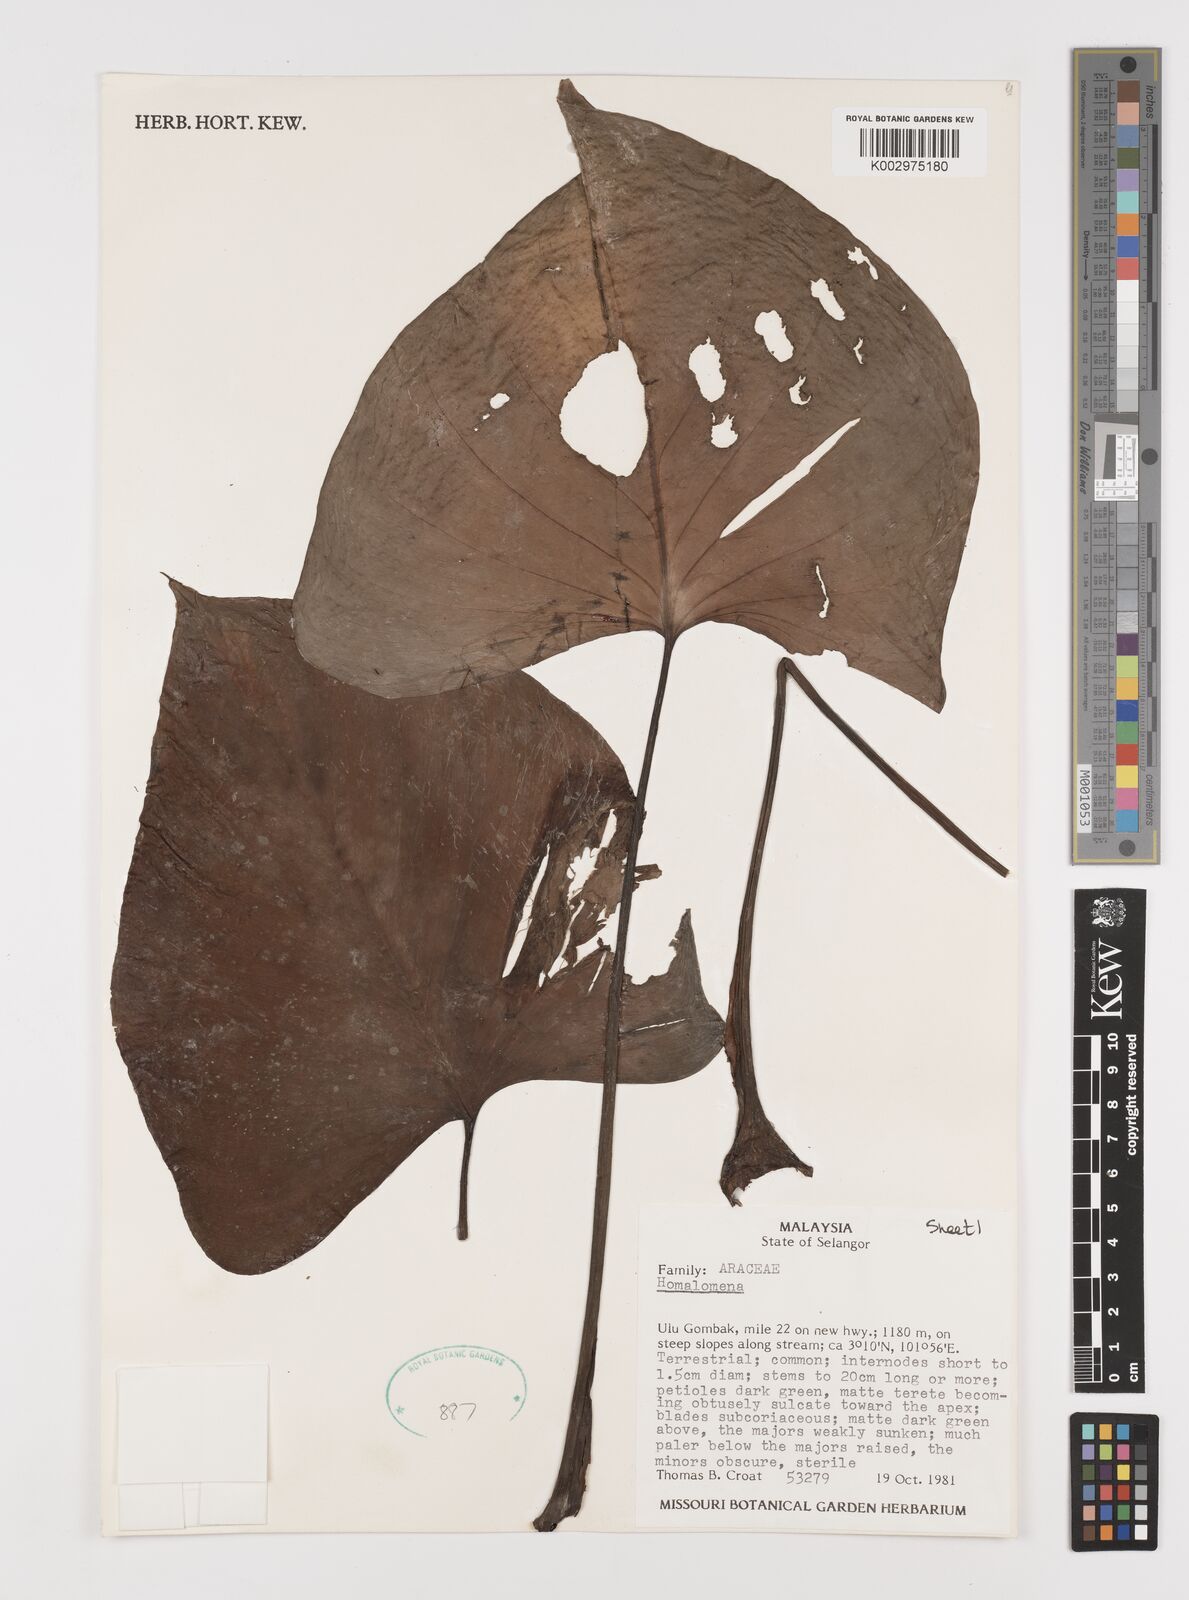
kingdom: Plantae
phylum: Tracheophyta
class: Liliopsida
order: Alismatales
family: Araceae
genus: Homalomena
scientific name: Homalomena
